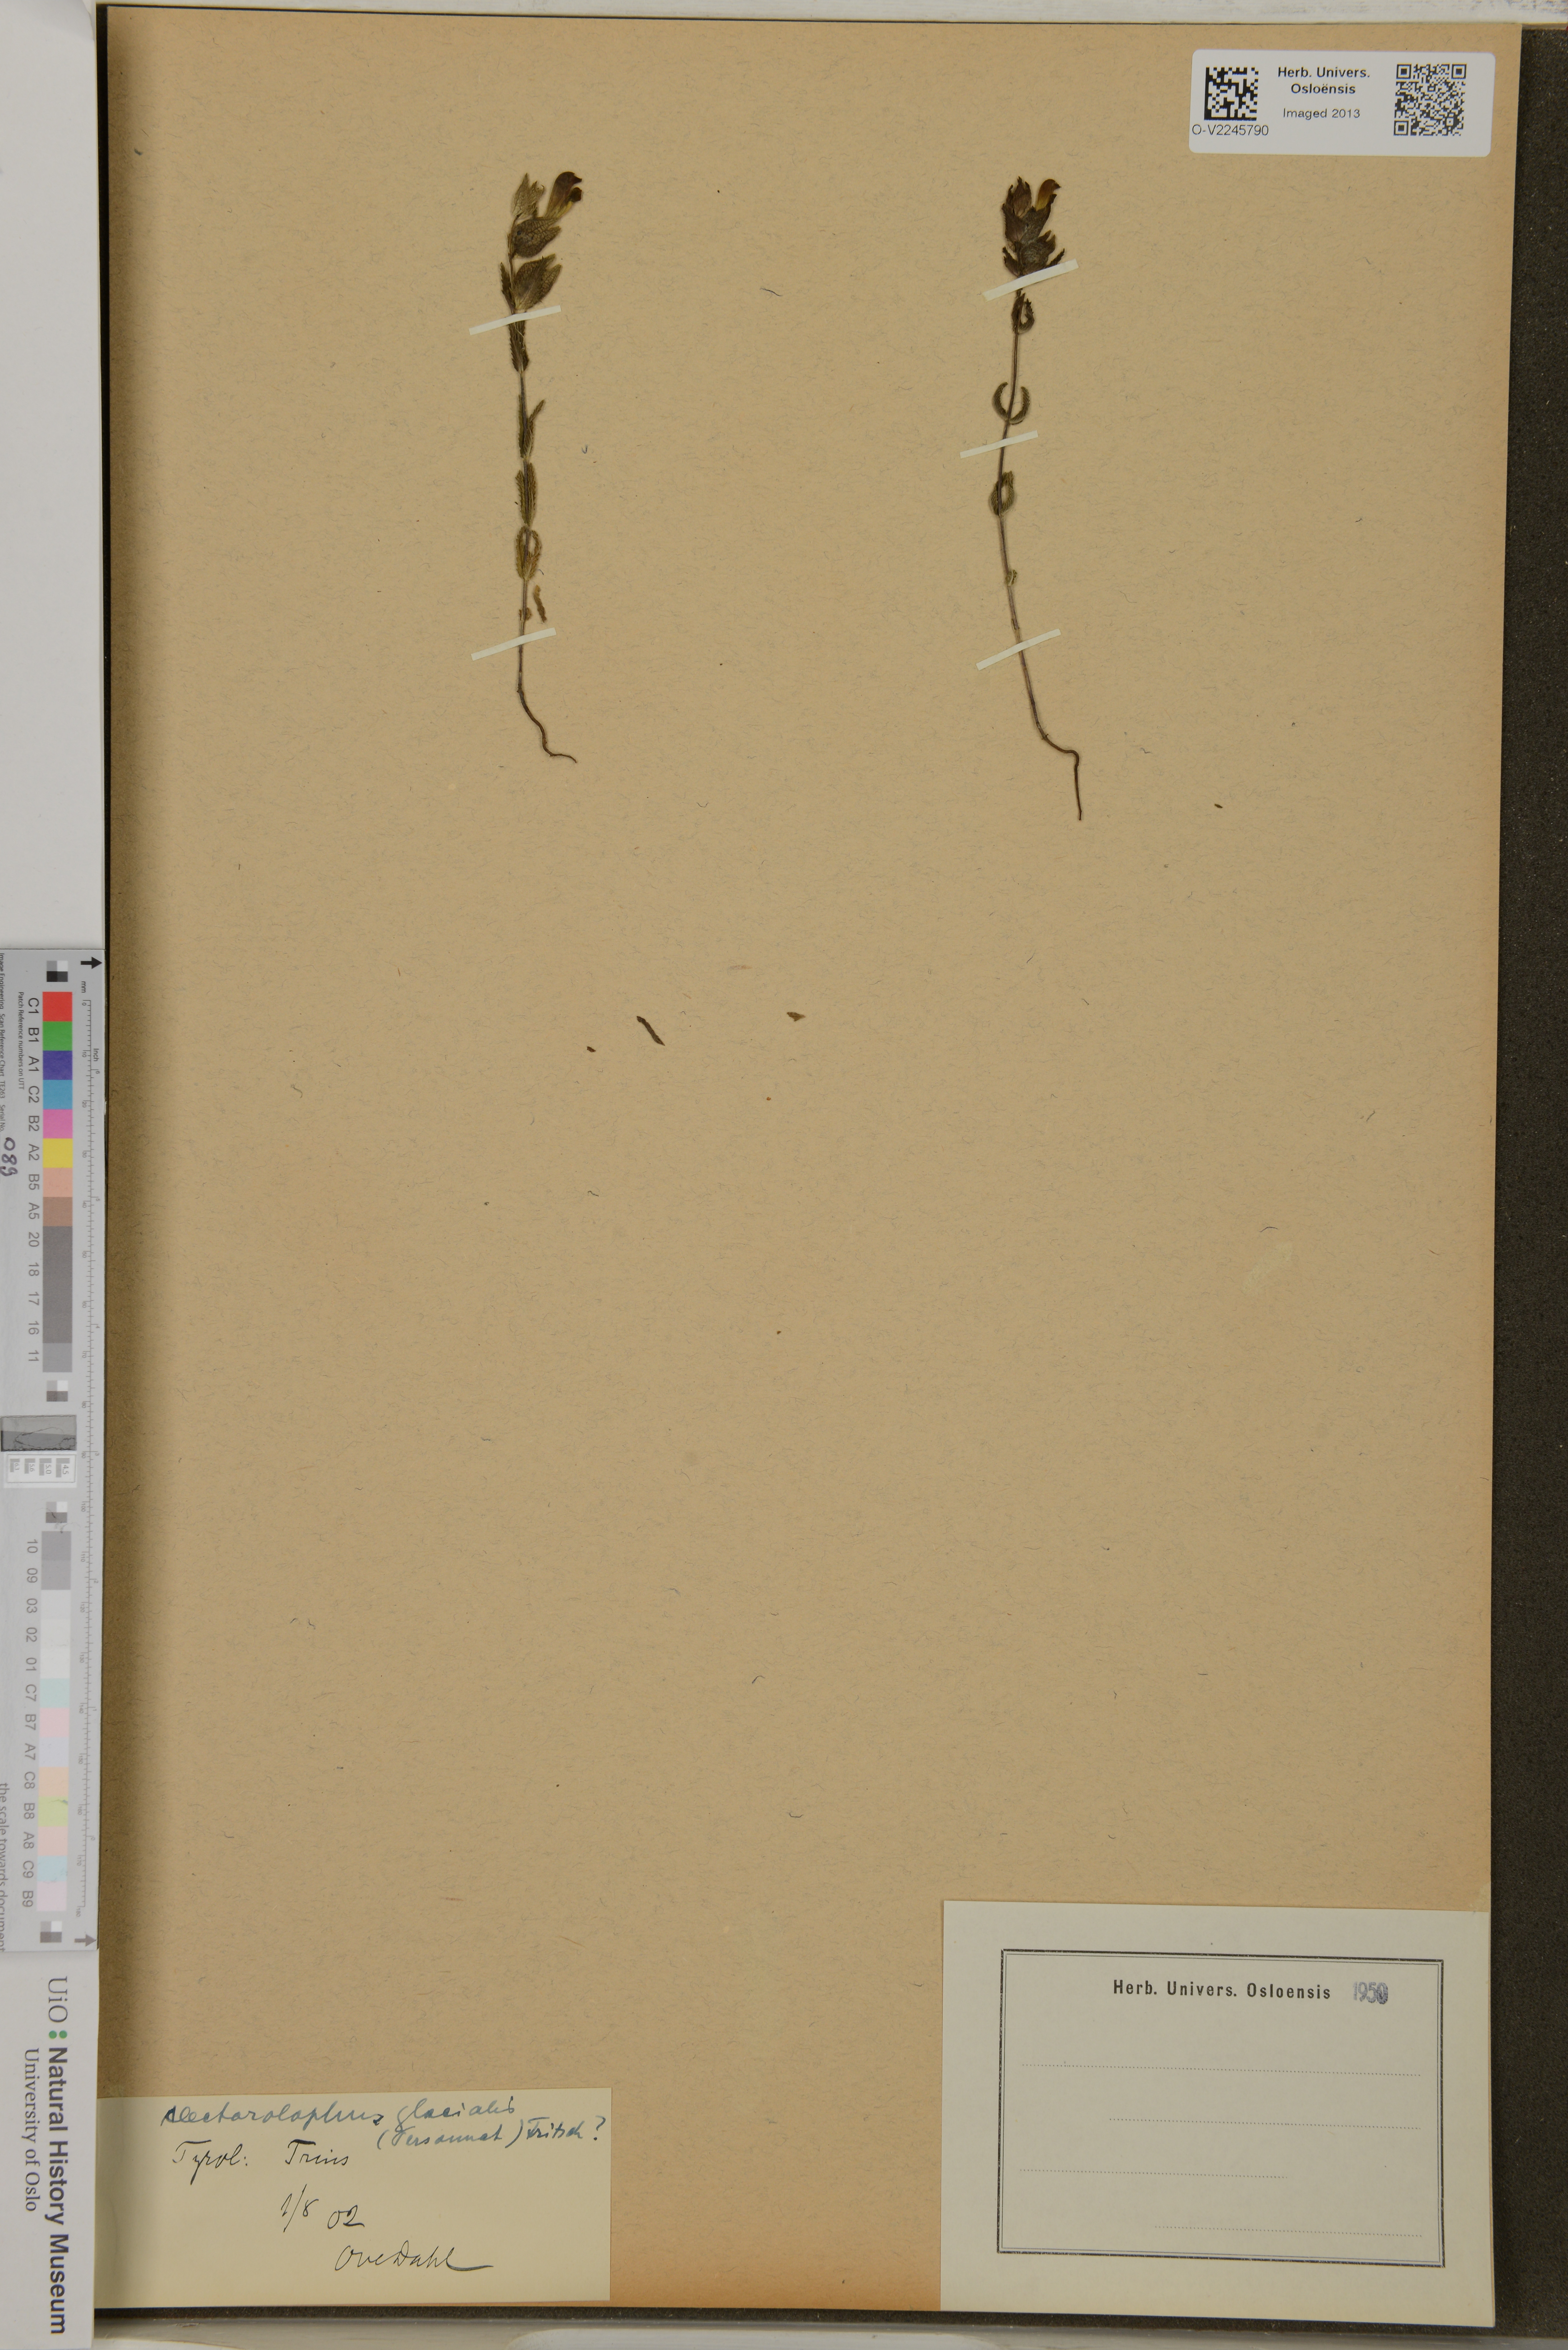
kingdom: Plantae
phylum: Tracheophyta
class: Magnoliopsida
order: Lamiales
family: Orobanchaceae
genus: Rhinanthus
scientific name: Rhinanthus glacialis
